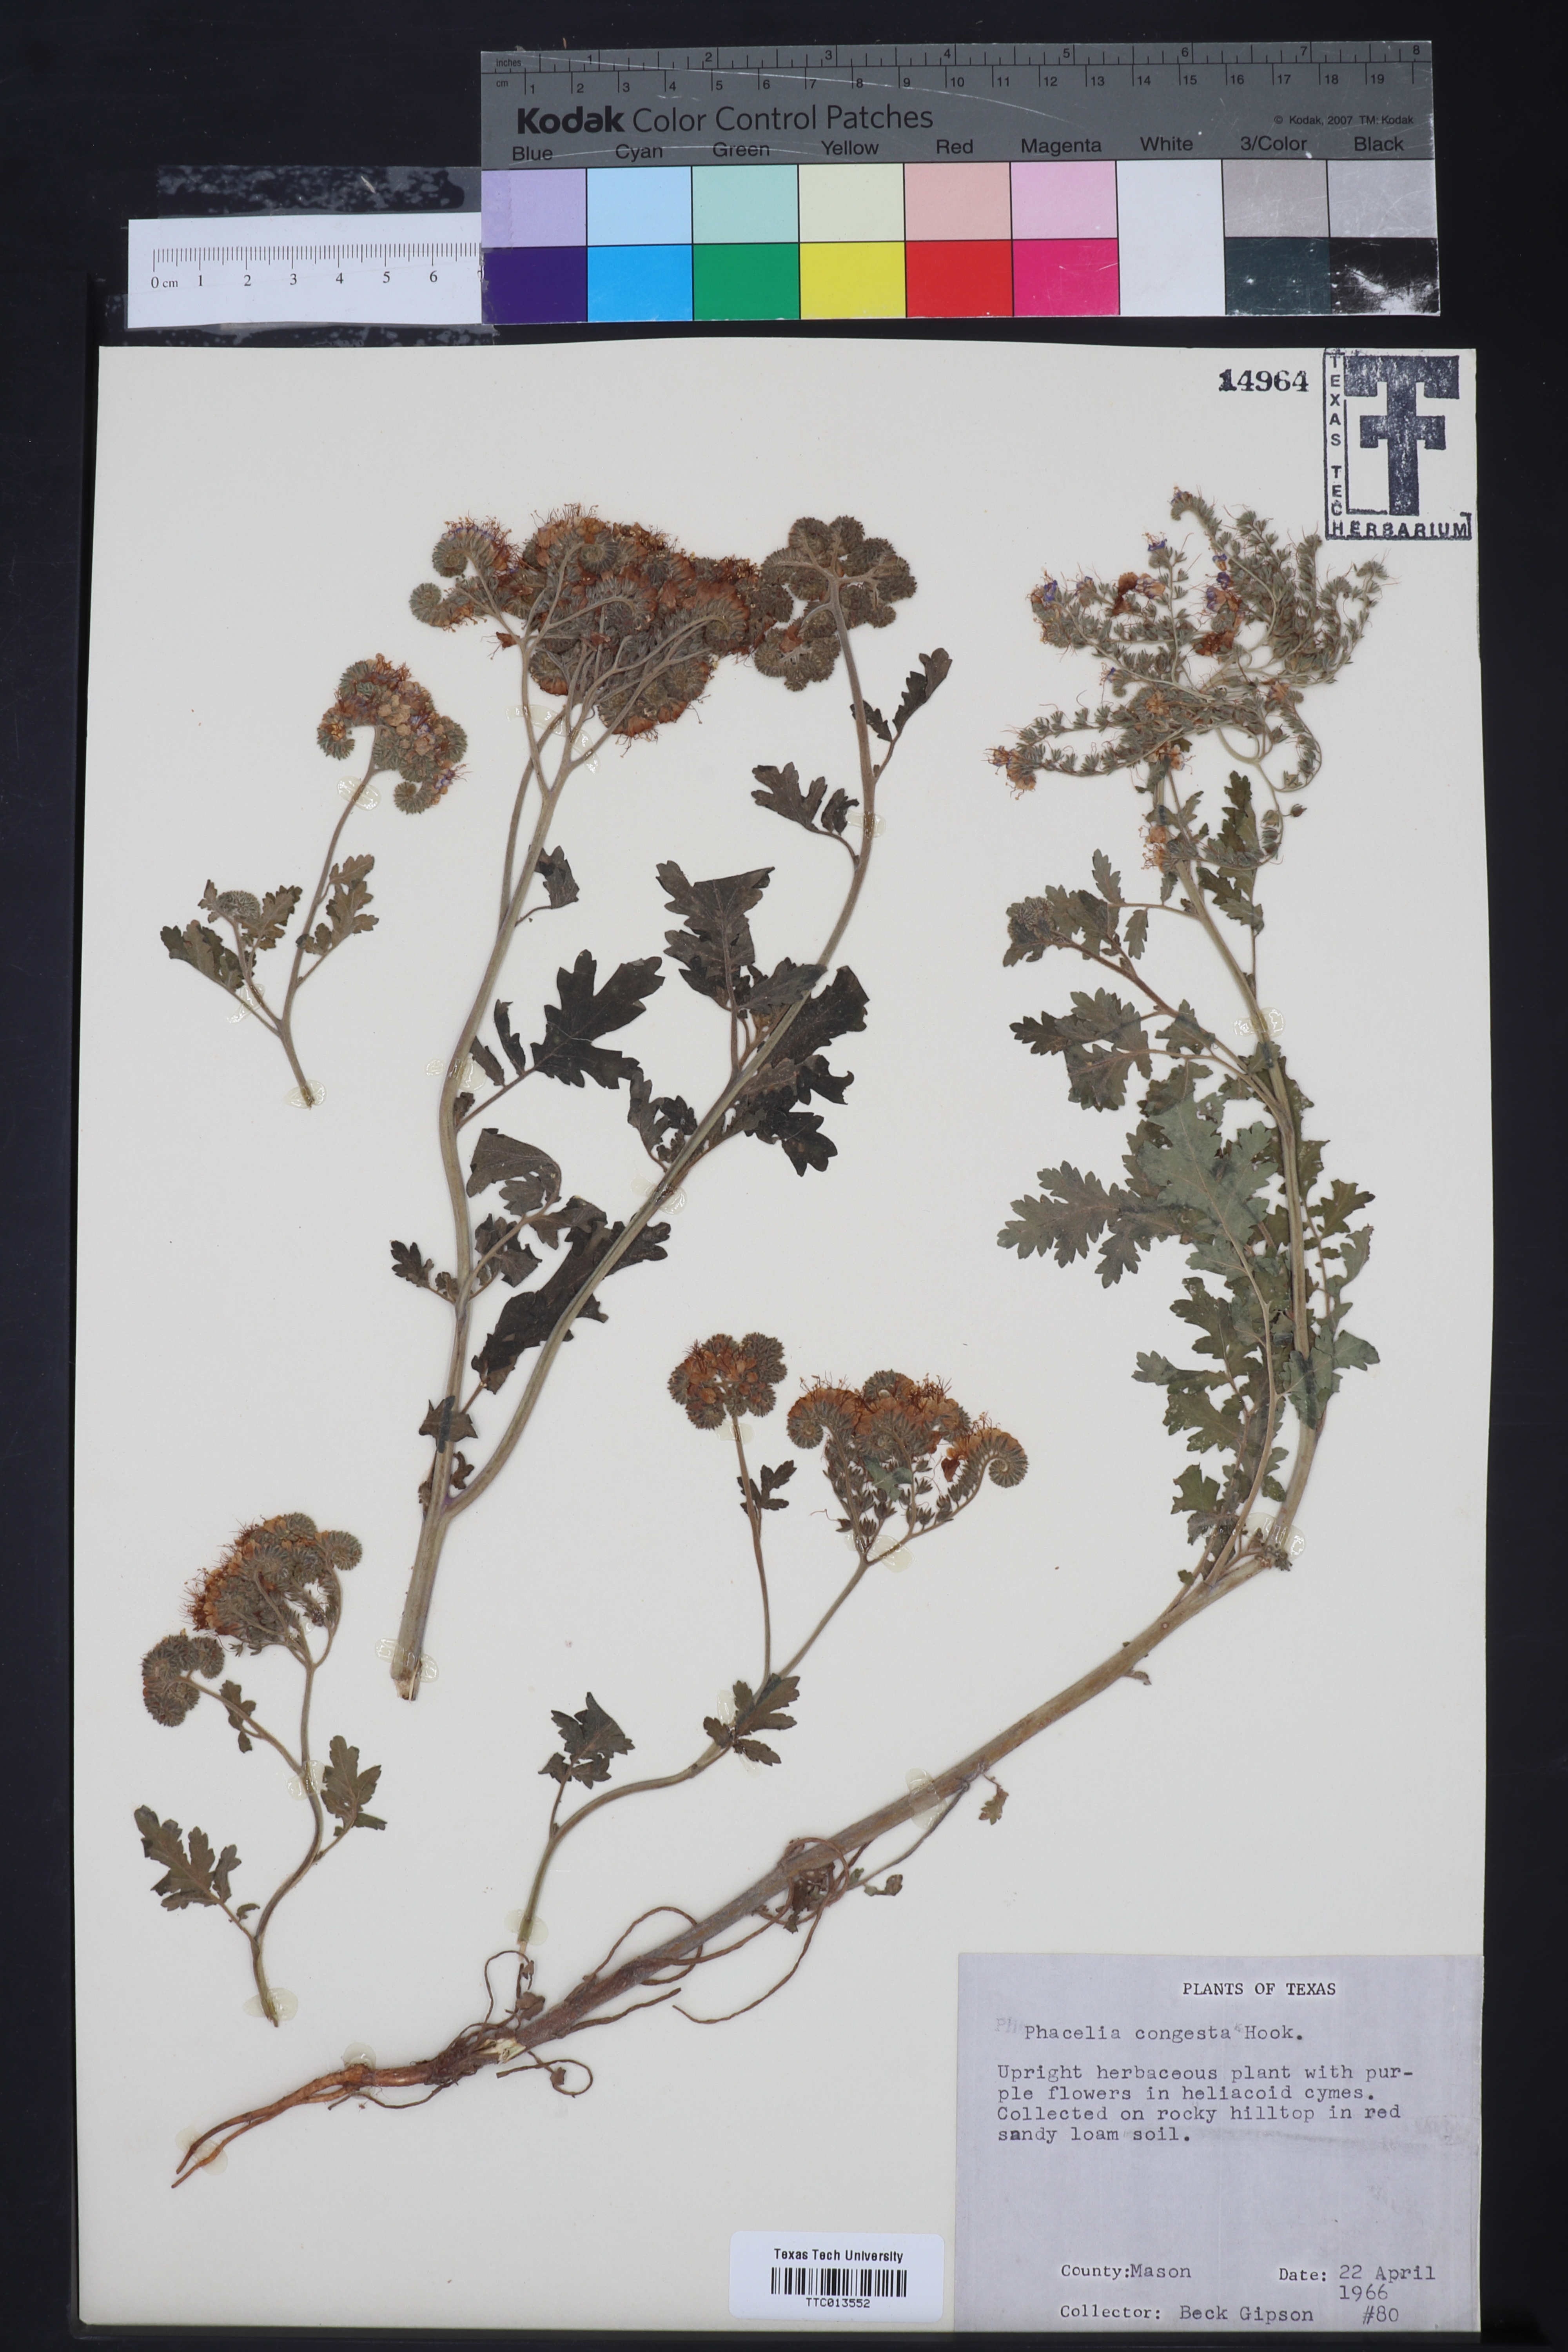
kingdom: Plantae
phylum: Tracheophyta
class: Magnoliopsida
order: Boraginales
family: Hydrophyllaceae
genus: Phacelia
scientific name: Phacelia congesta
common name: Blue curls
